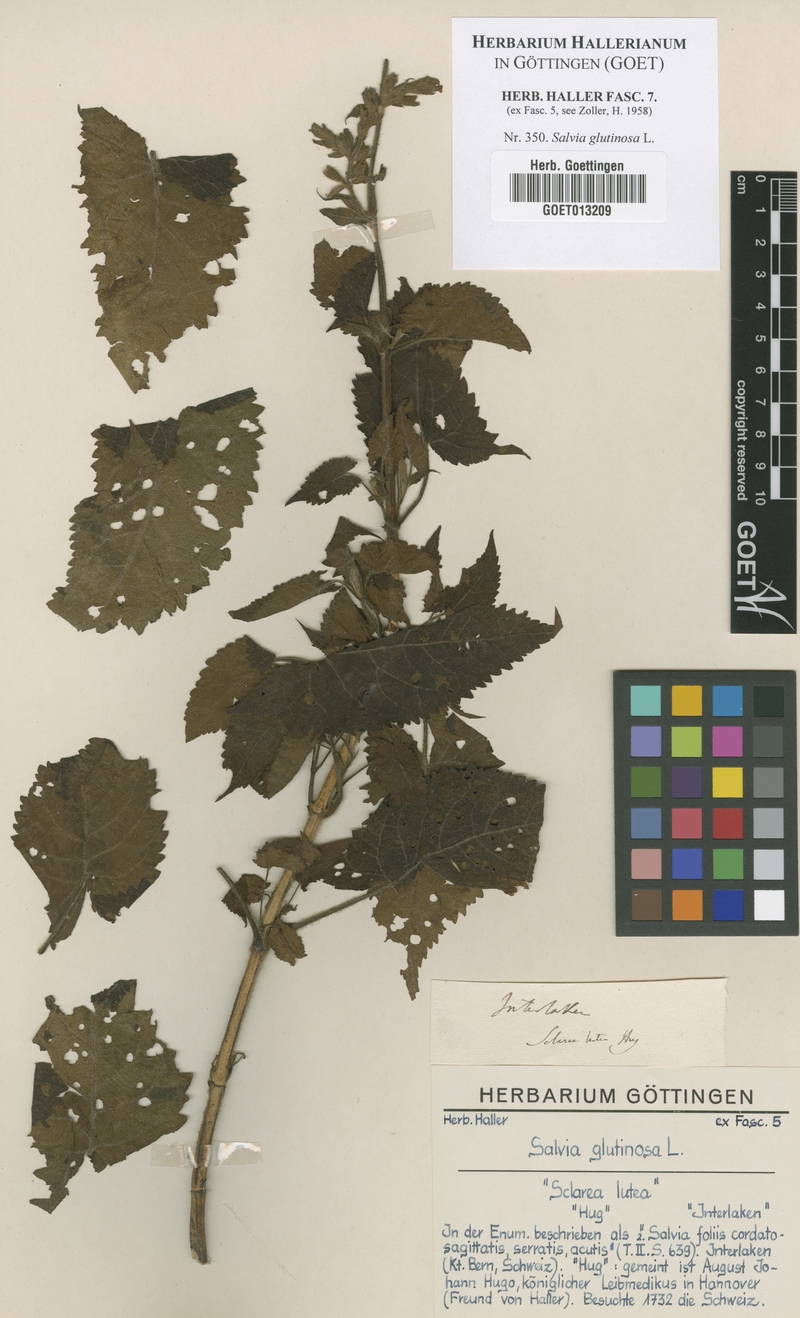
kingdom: Plantae
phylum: Tracheophyta
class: Magnoliopsida
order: Lamiales
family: Lamiaceae
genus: Salvia
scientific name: Salvia glutinosa
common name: Sticky clary
